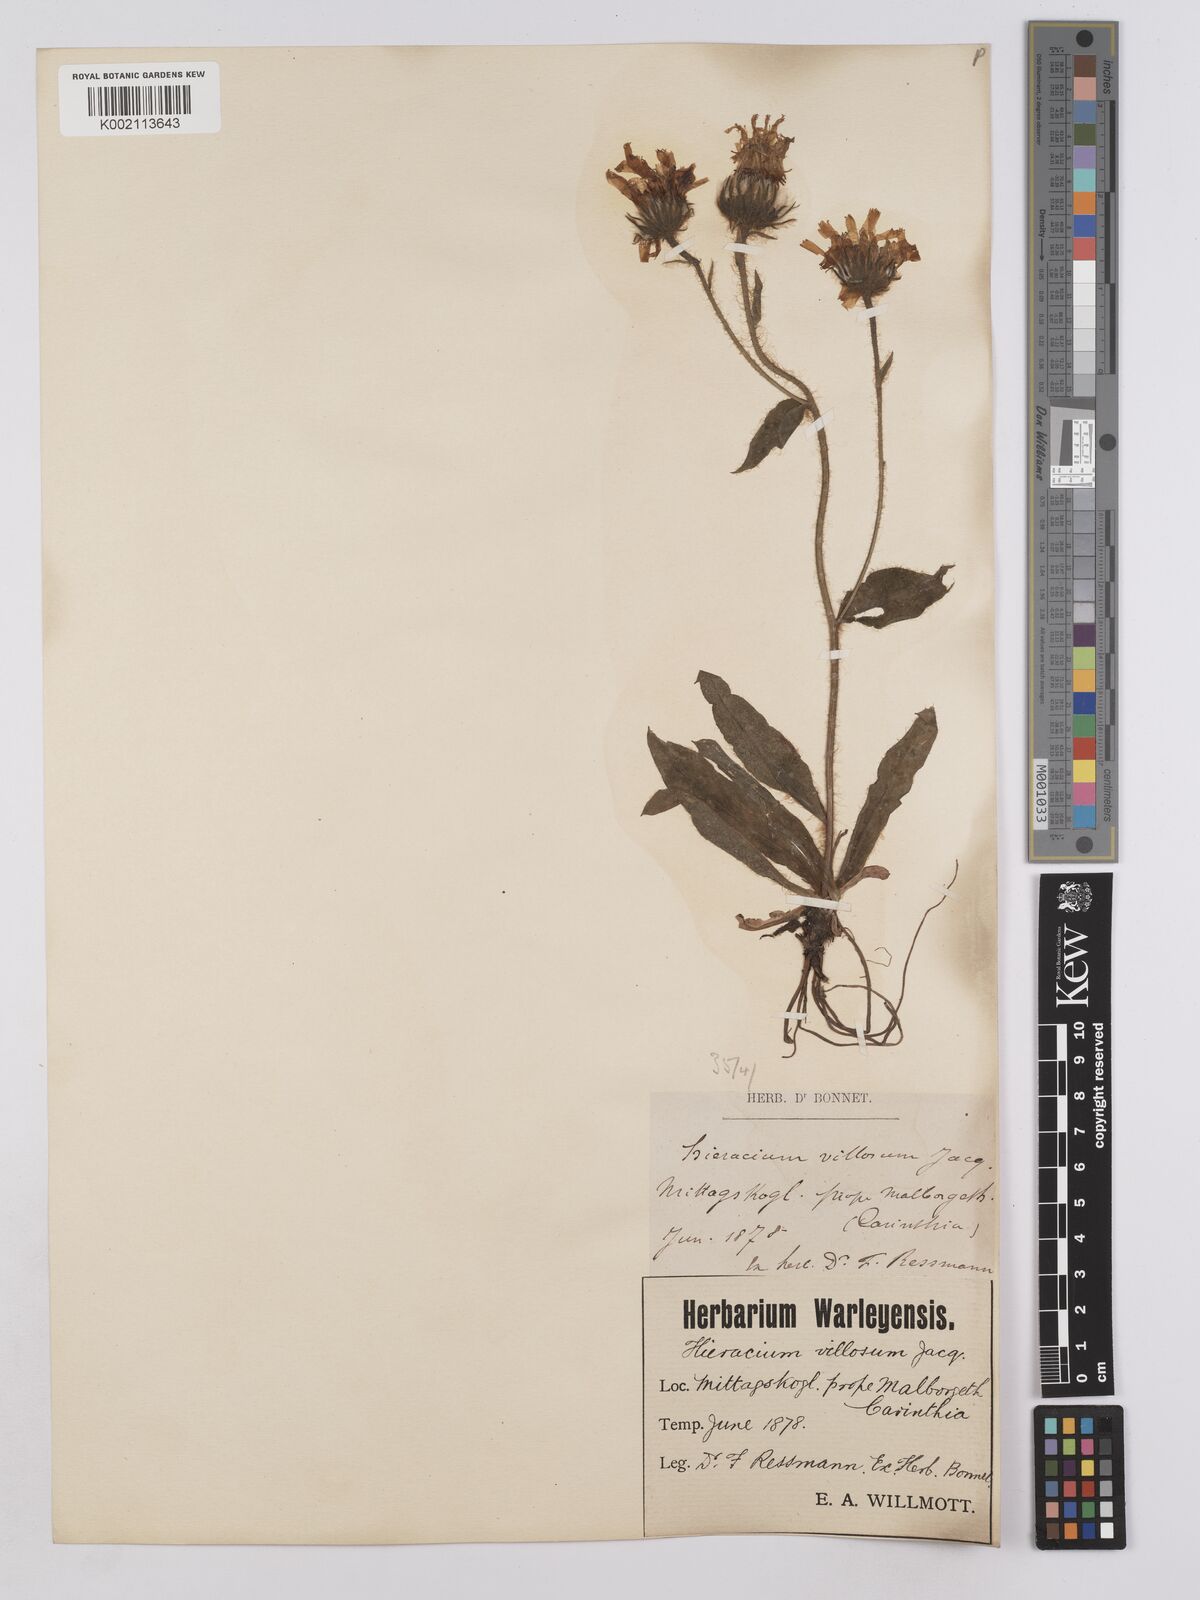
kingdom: Plantae
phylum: Tracheophyta
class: Magnoliopsida
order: Asterales
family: Asteraceae
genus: Hieracium
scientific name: Hieracium villosum
